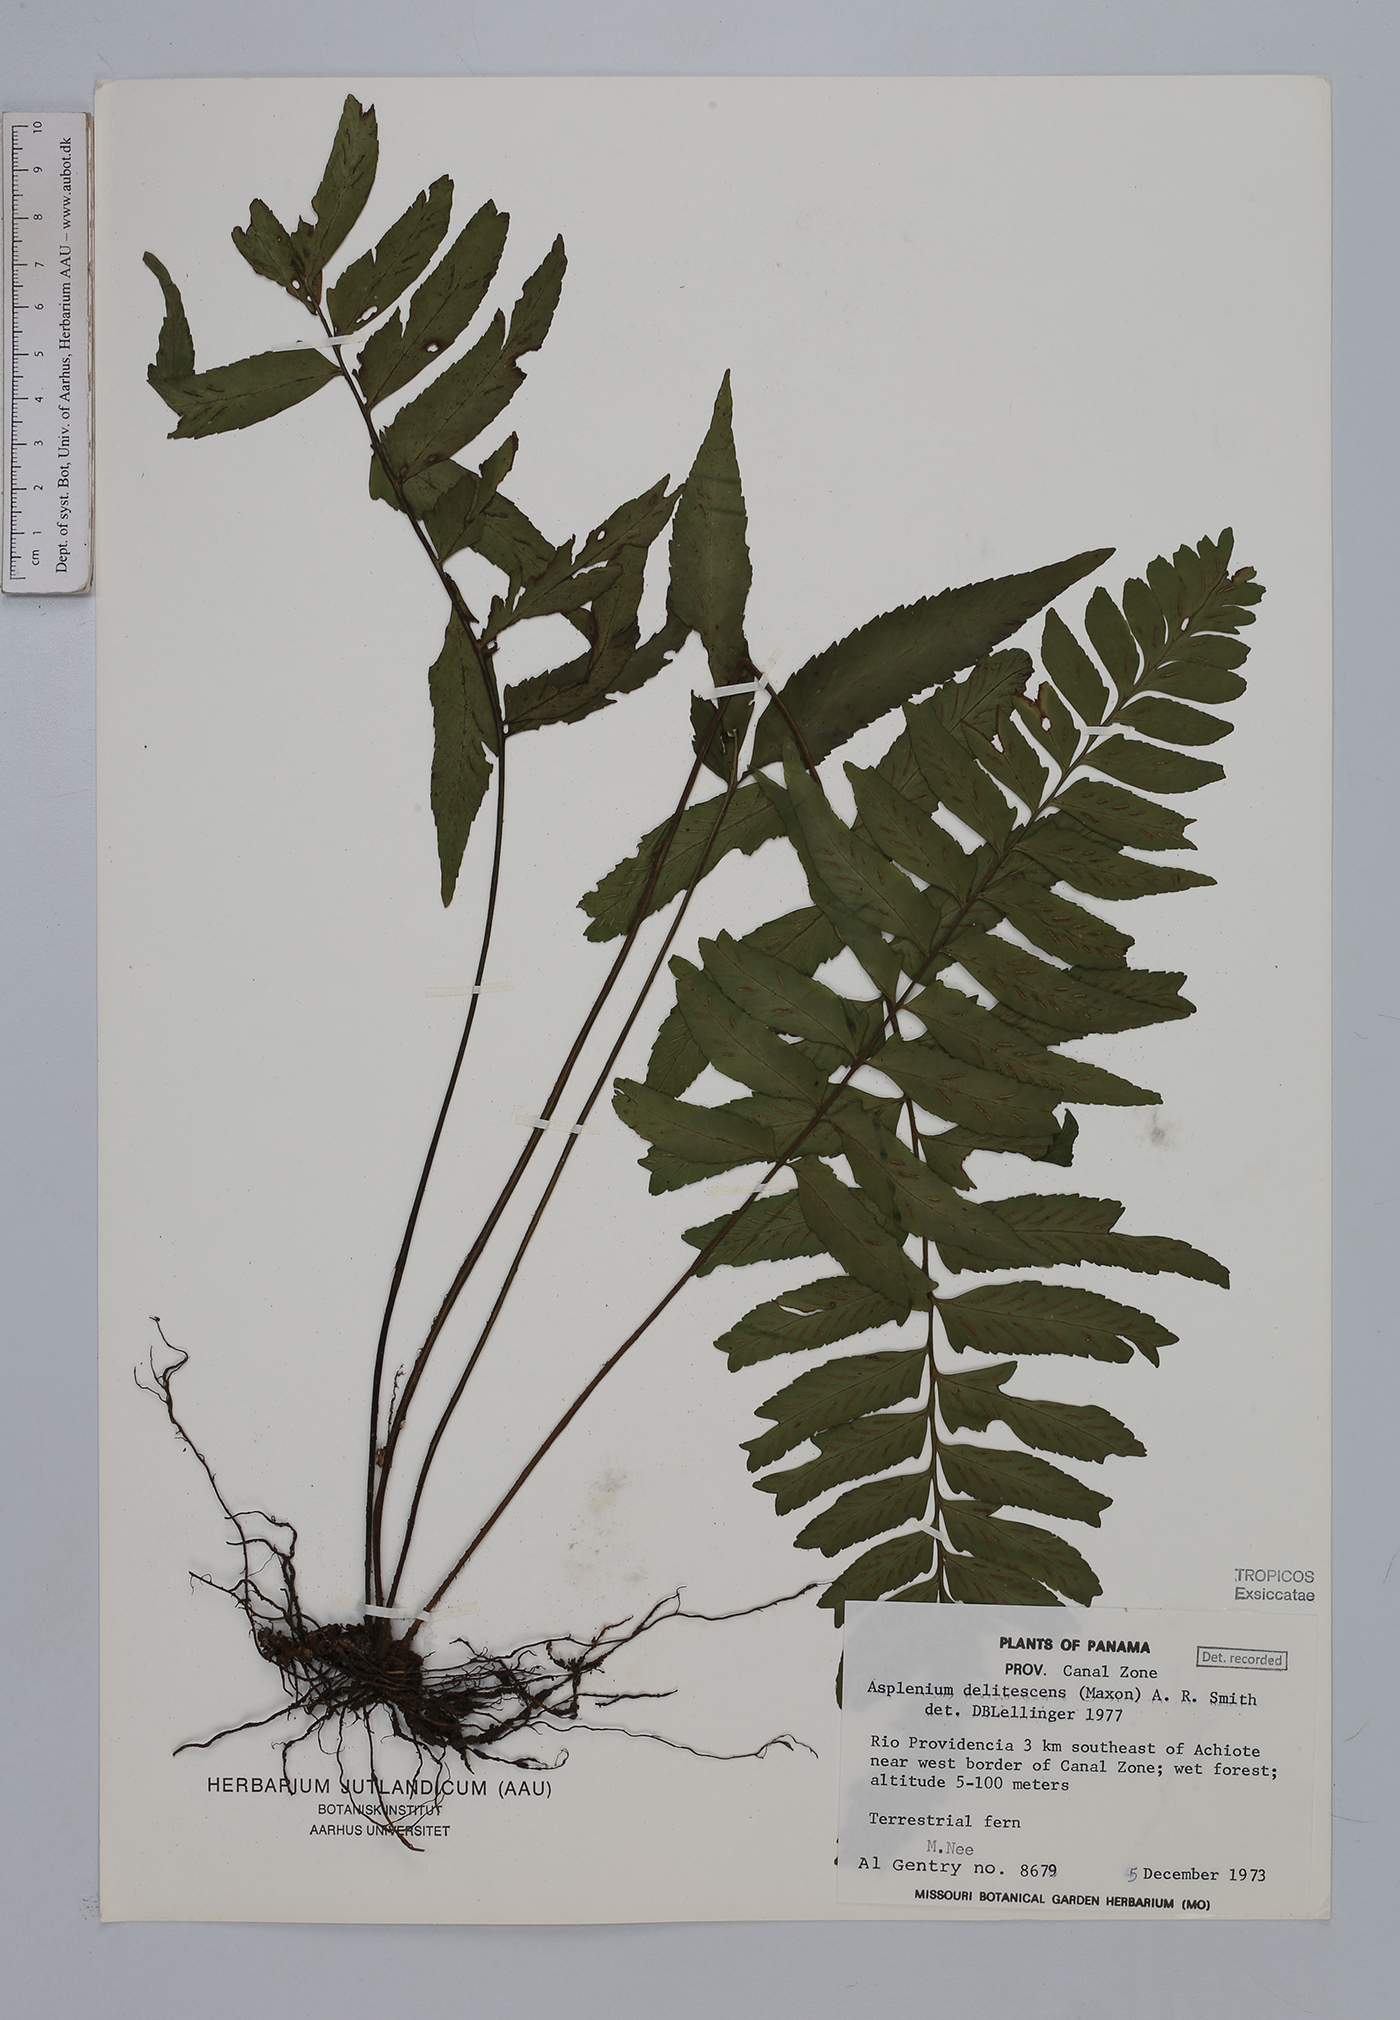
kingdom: Plantae
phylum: Tracheophyta
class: Polypodiopsida
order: Polypodiales
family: Aspleniaceae
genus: Hymenasplenium
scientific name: Hymenasplenium delitescens
